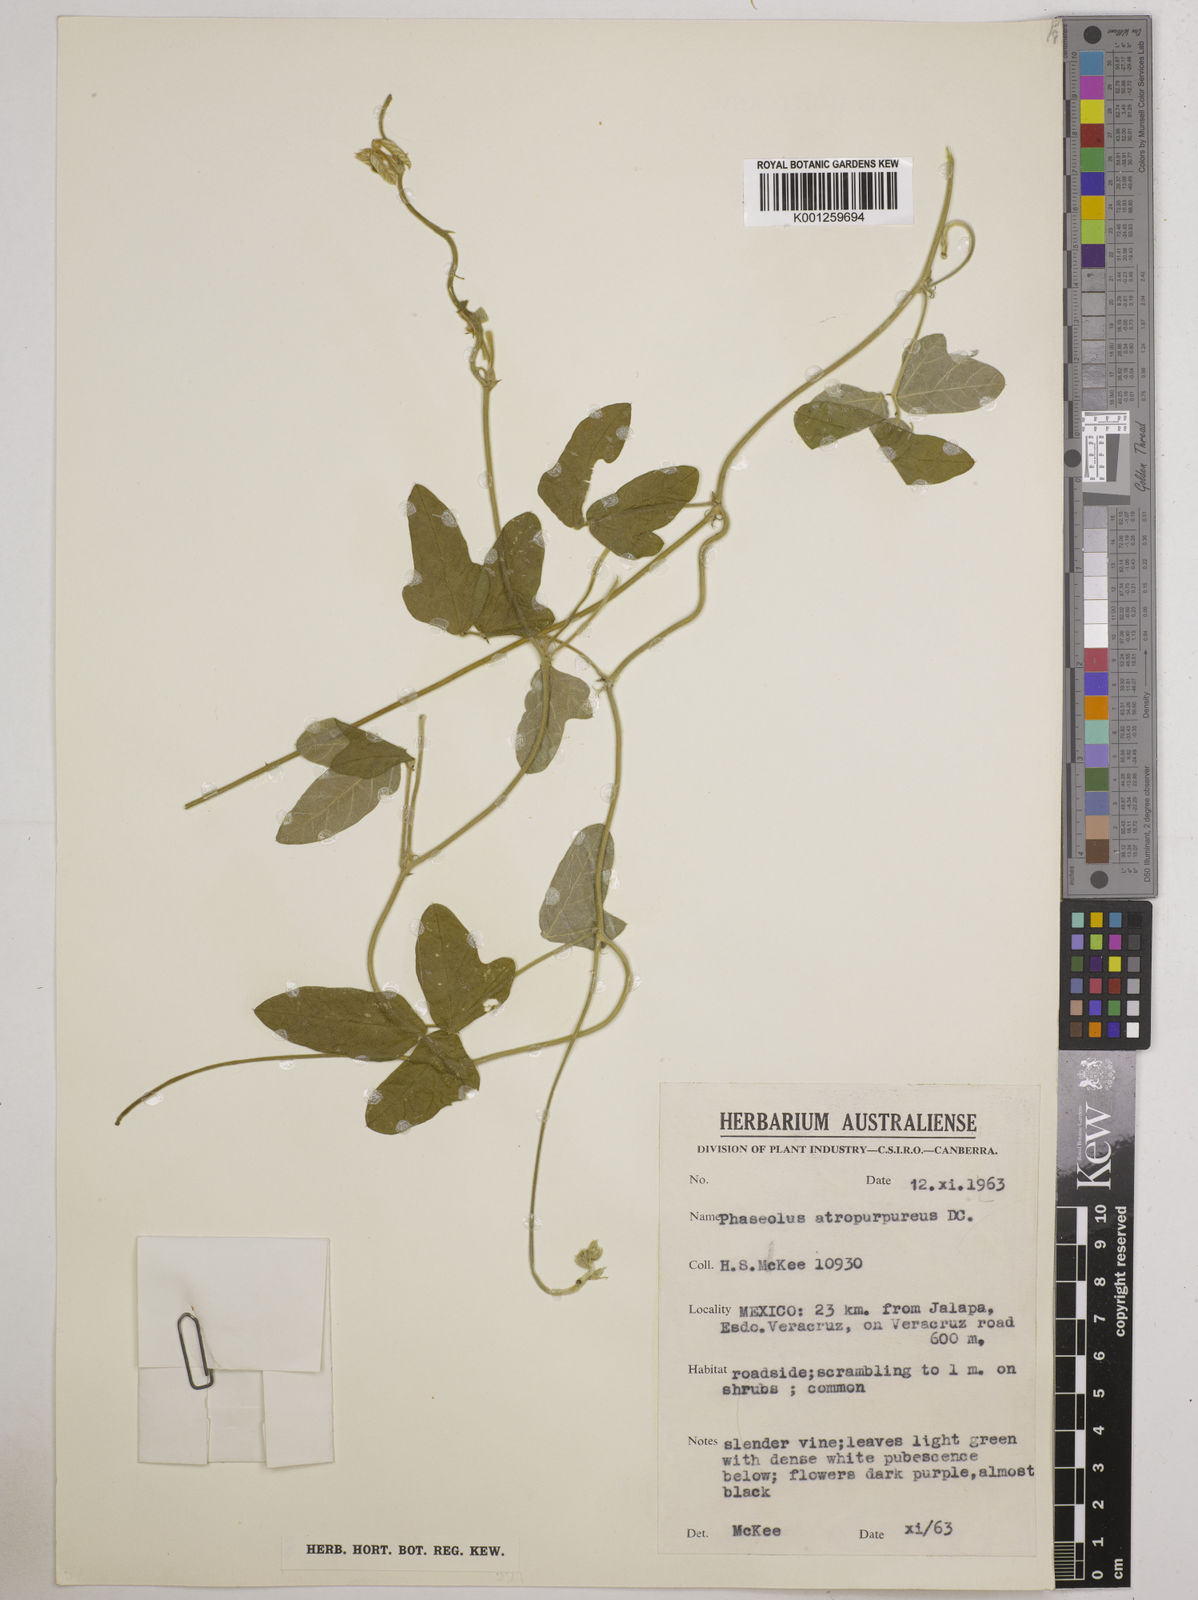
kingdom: Plantae
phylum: Tracheophyta
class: Magnoliopsida
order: Fabales
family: Fabaceae
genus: Macroptilium
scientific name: Macroptilium atropurpureum
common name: Purple bushbean
